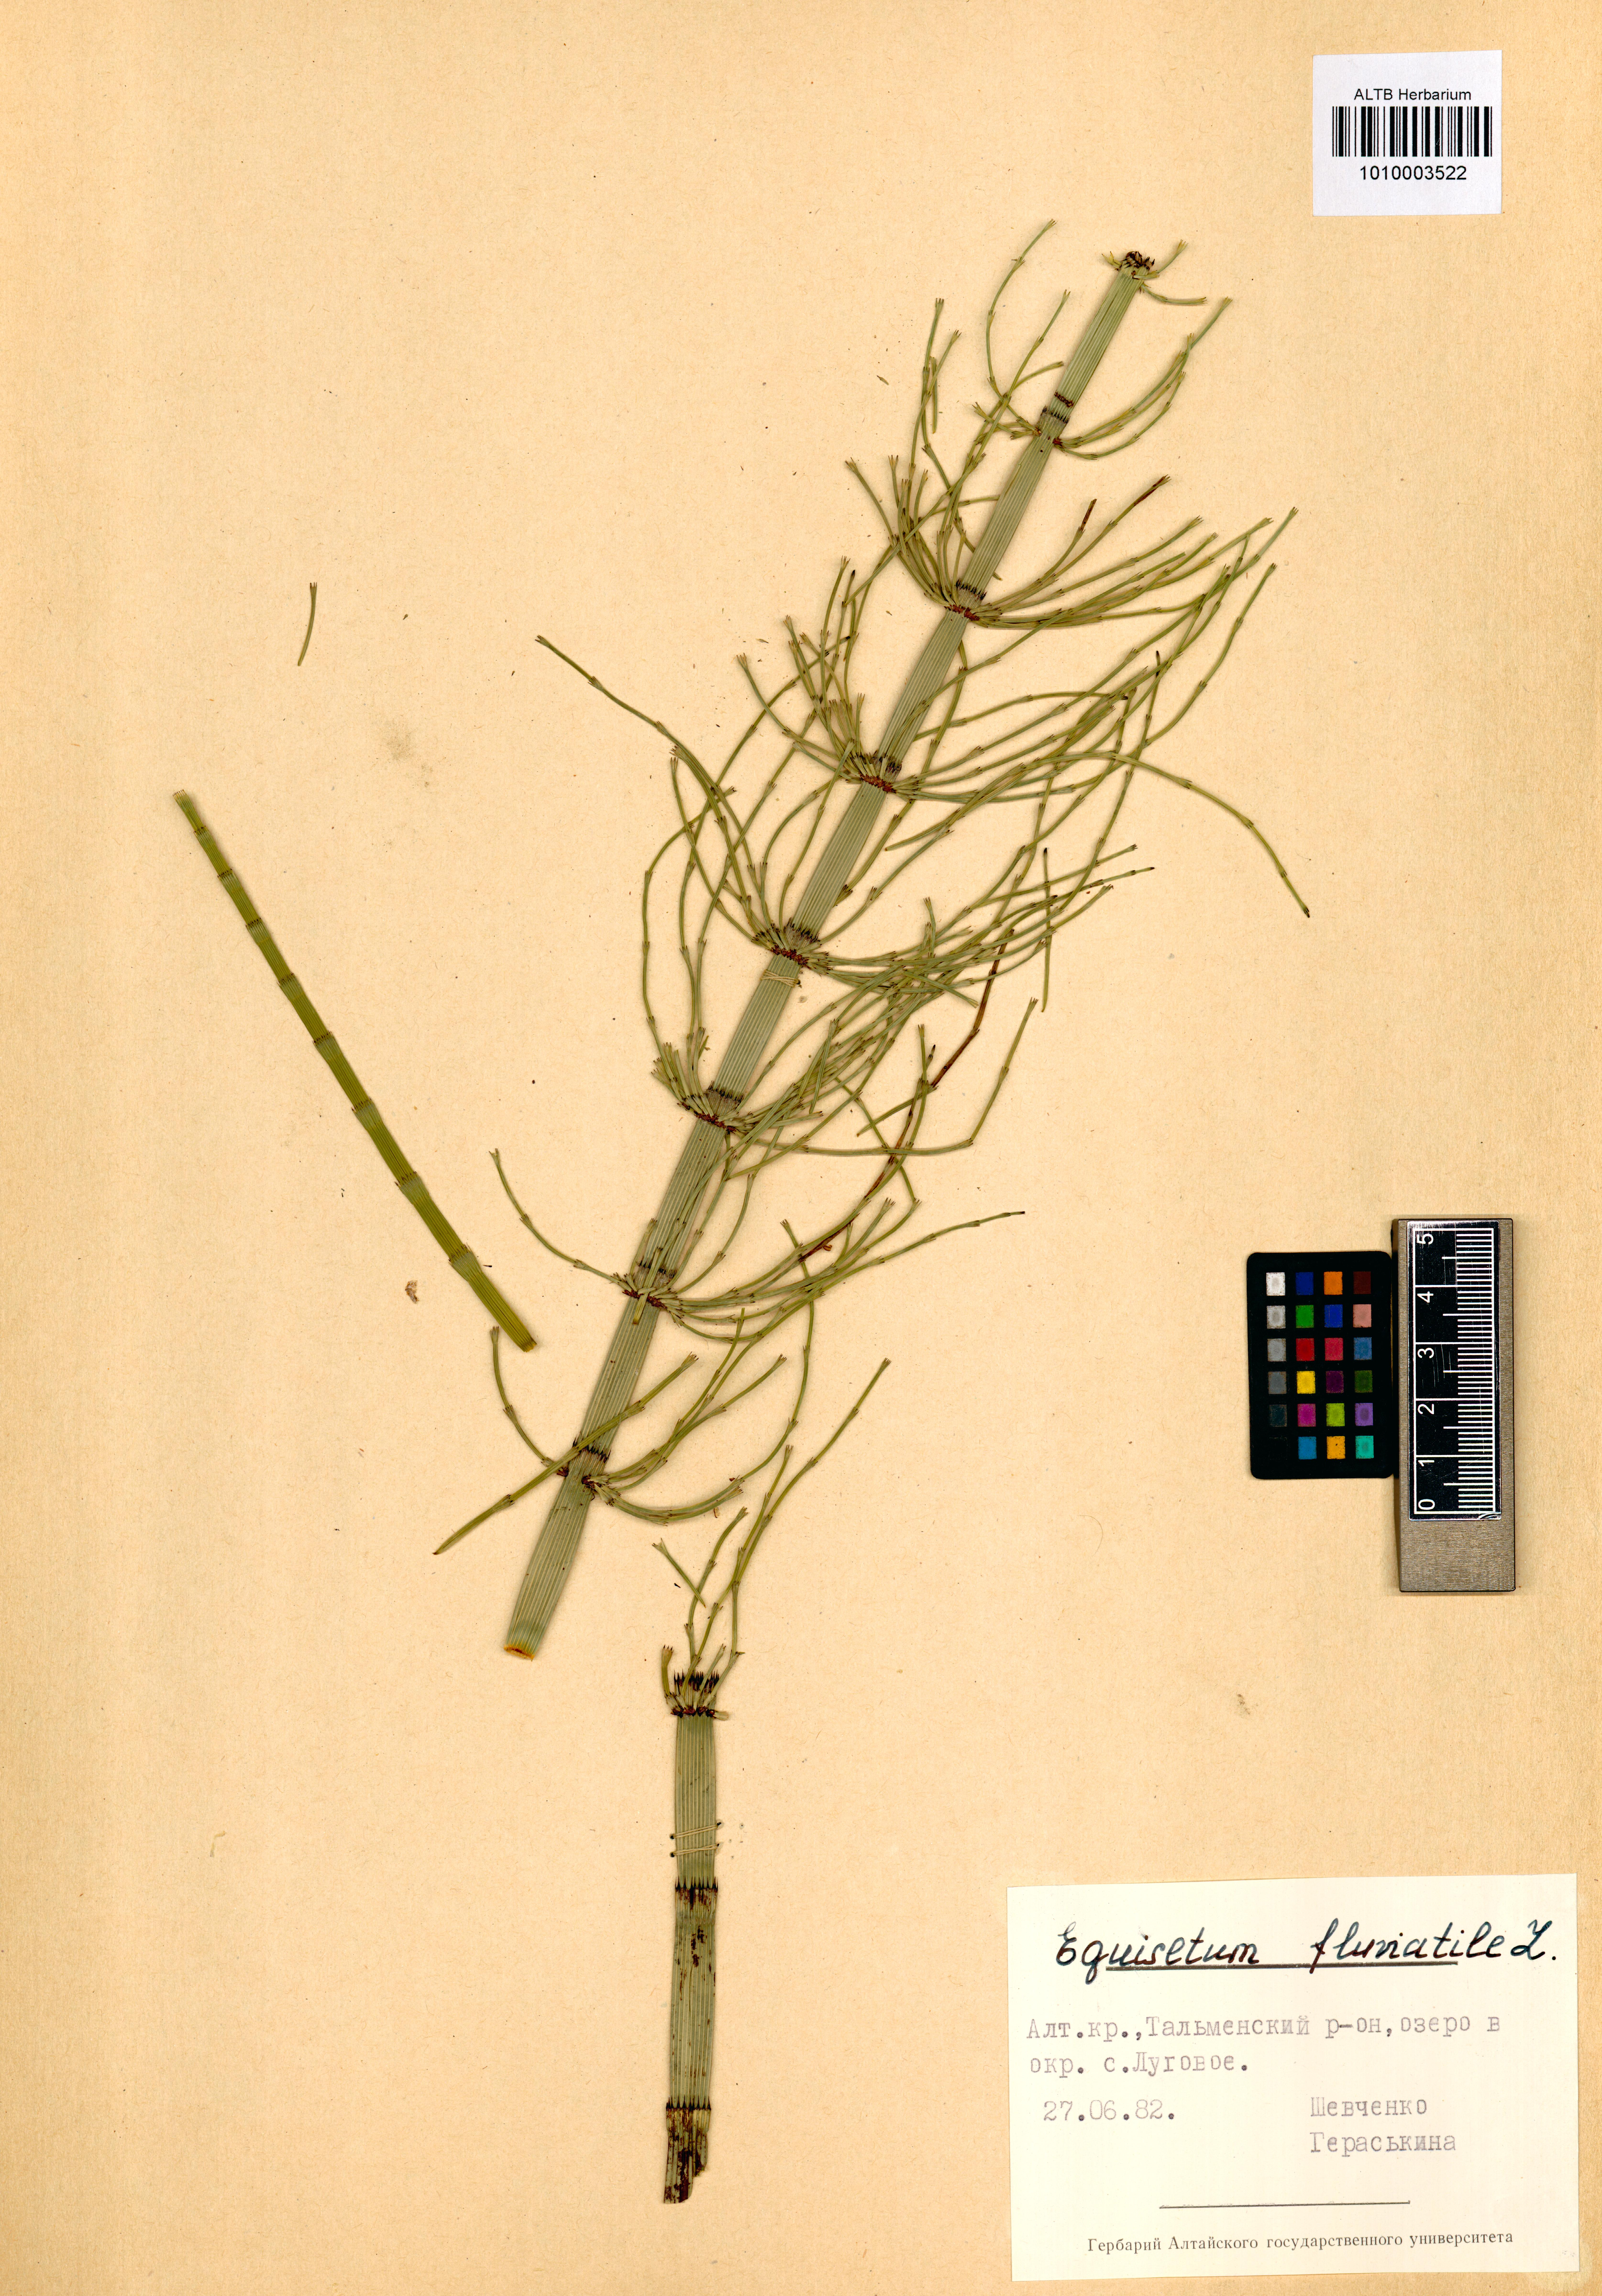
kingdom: Plantae
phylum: Tracheophyta
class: Polypodiopsida
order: Equisetales
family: Equisetaceae
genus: Equisetum
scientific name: Equisetum fluviatile
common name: Water horsetail
